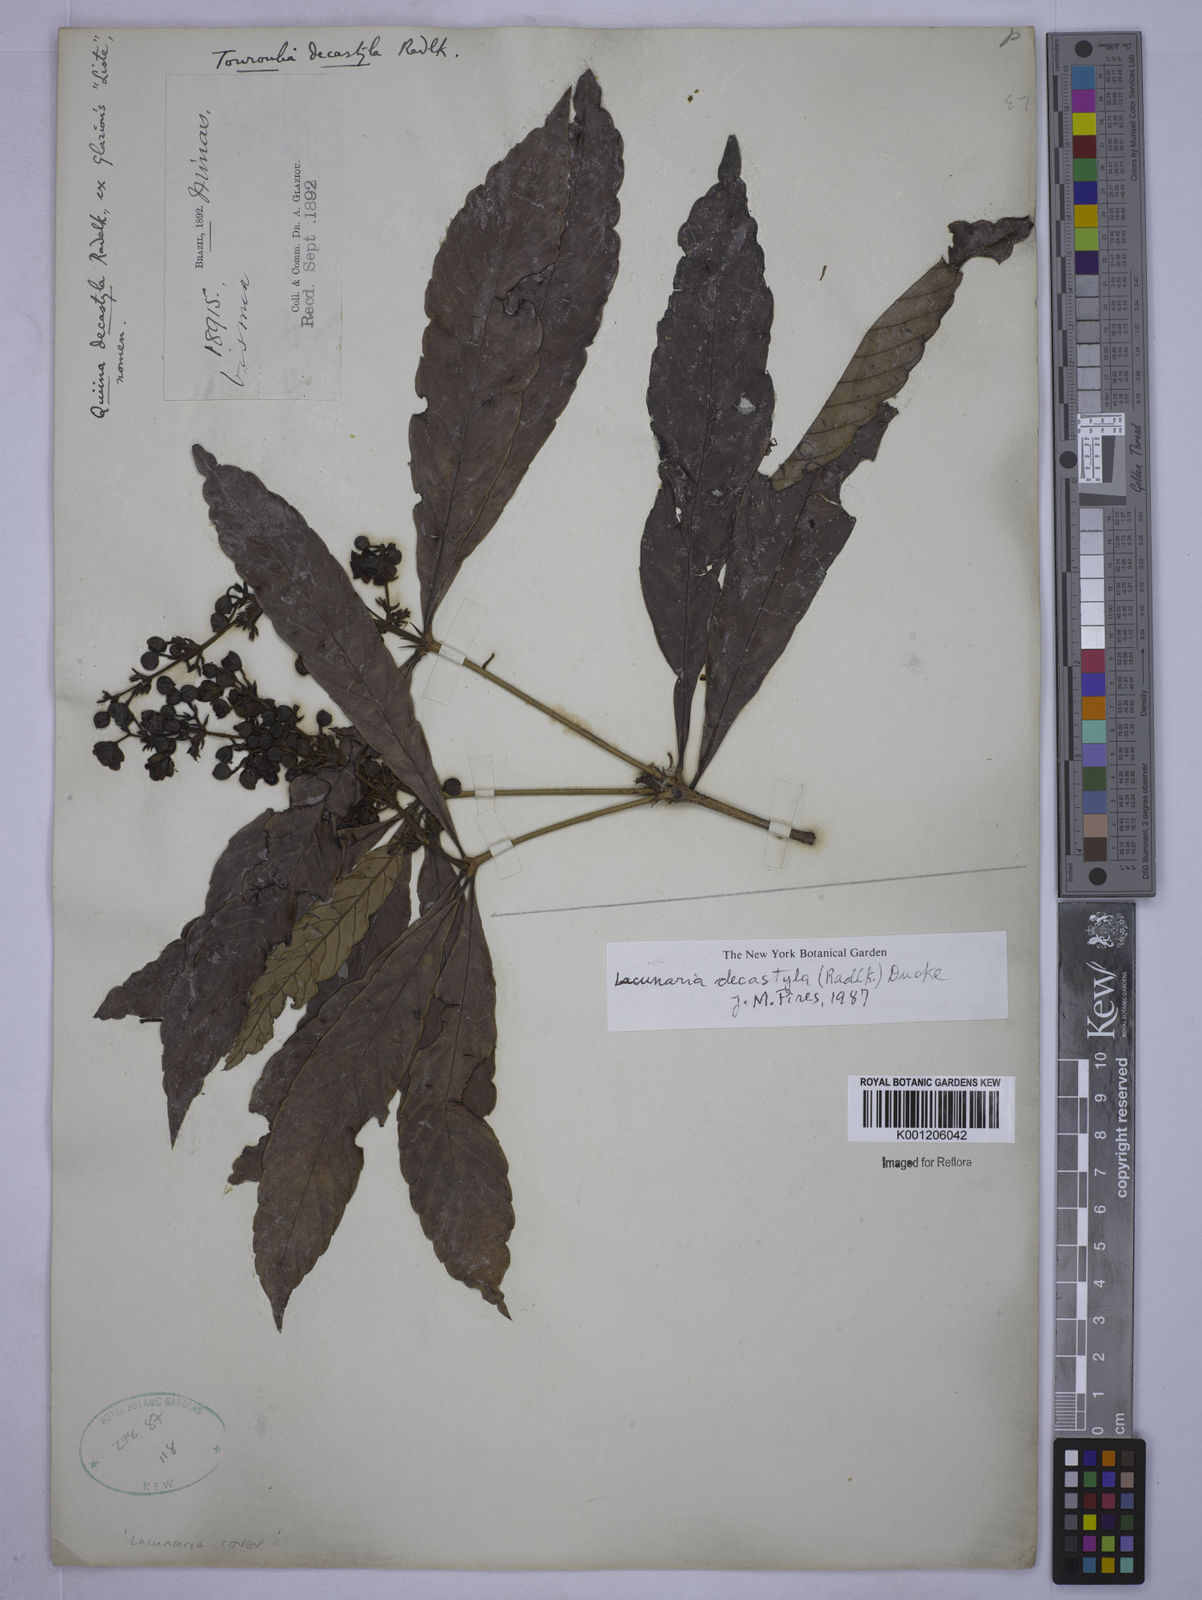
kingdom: Plantae
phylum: Tracheophyta
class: Magnoliopsida
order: Malpighiales
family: Quiinaceae
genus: Lacunaria
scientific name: Lacunaria crenata
